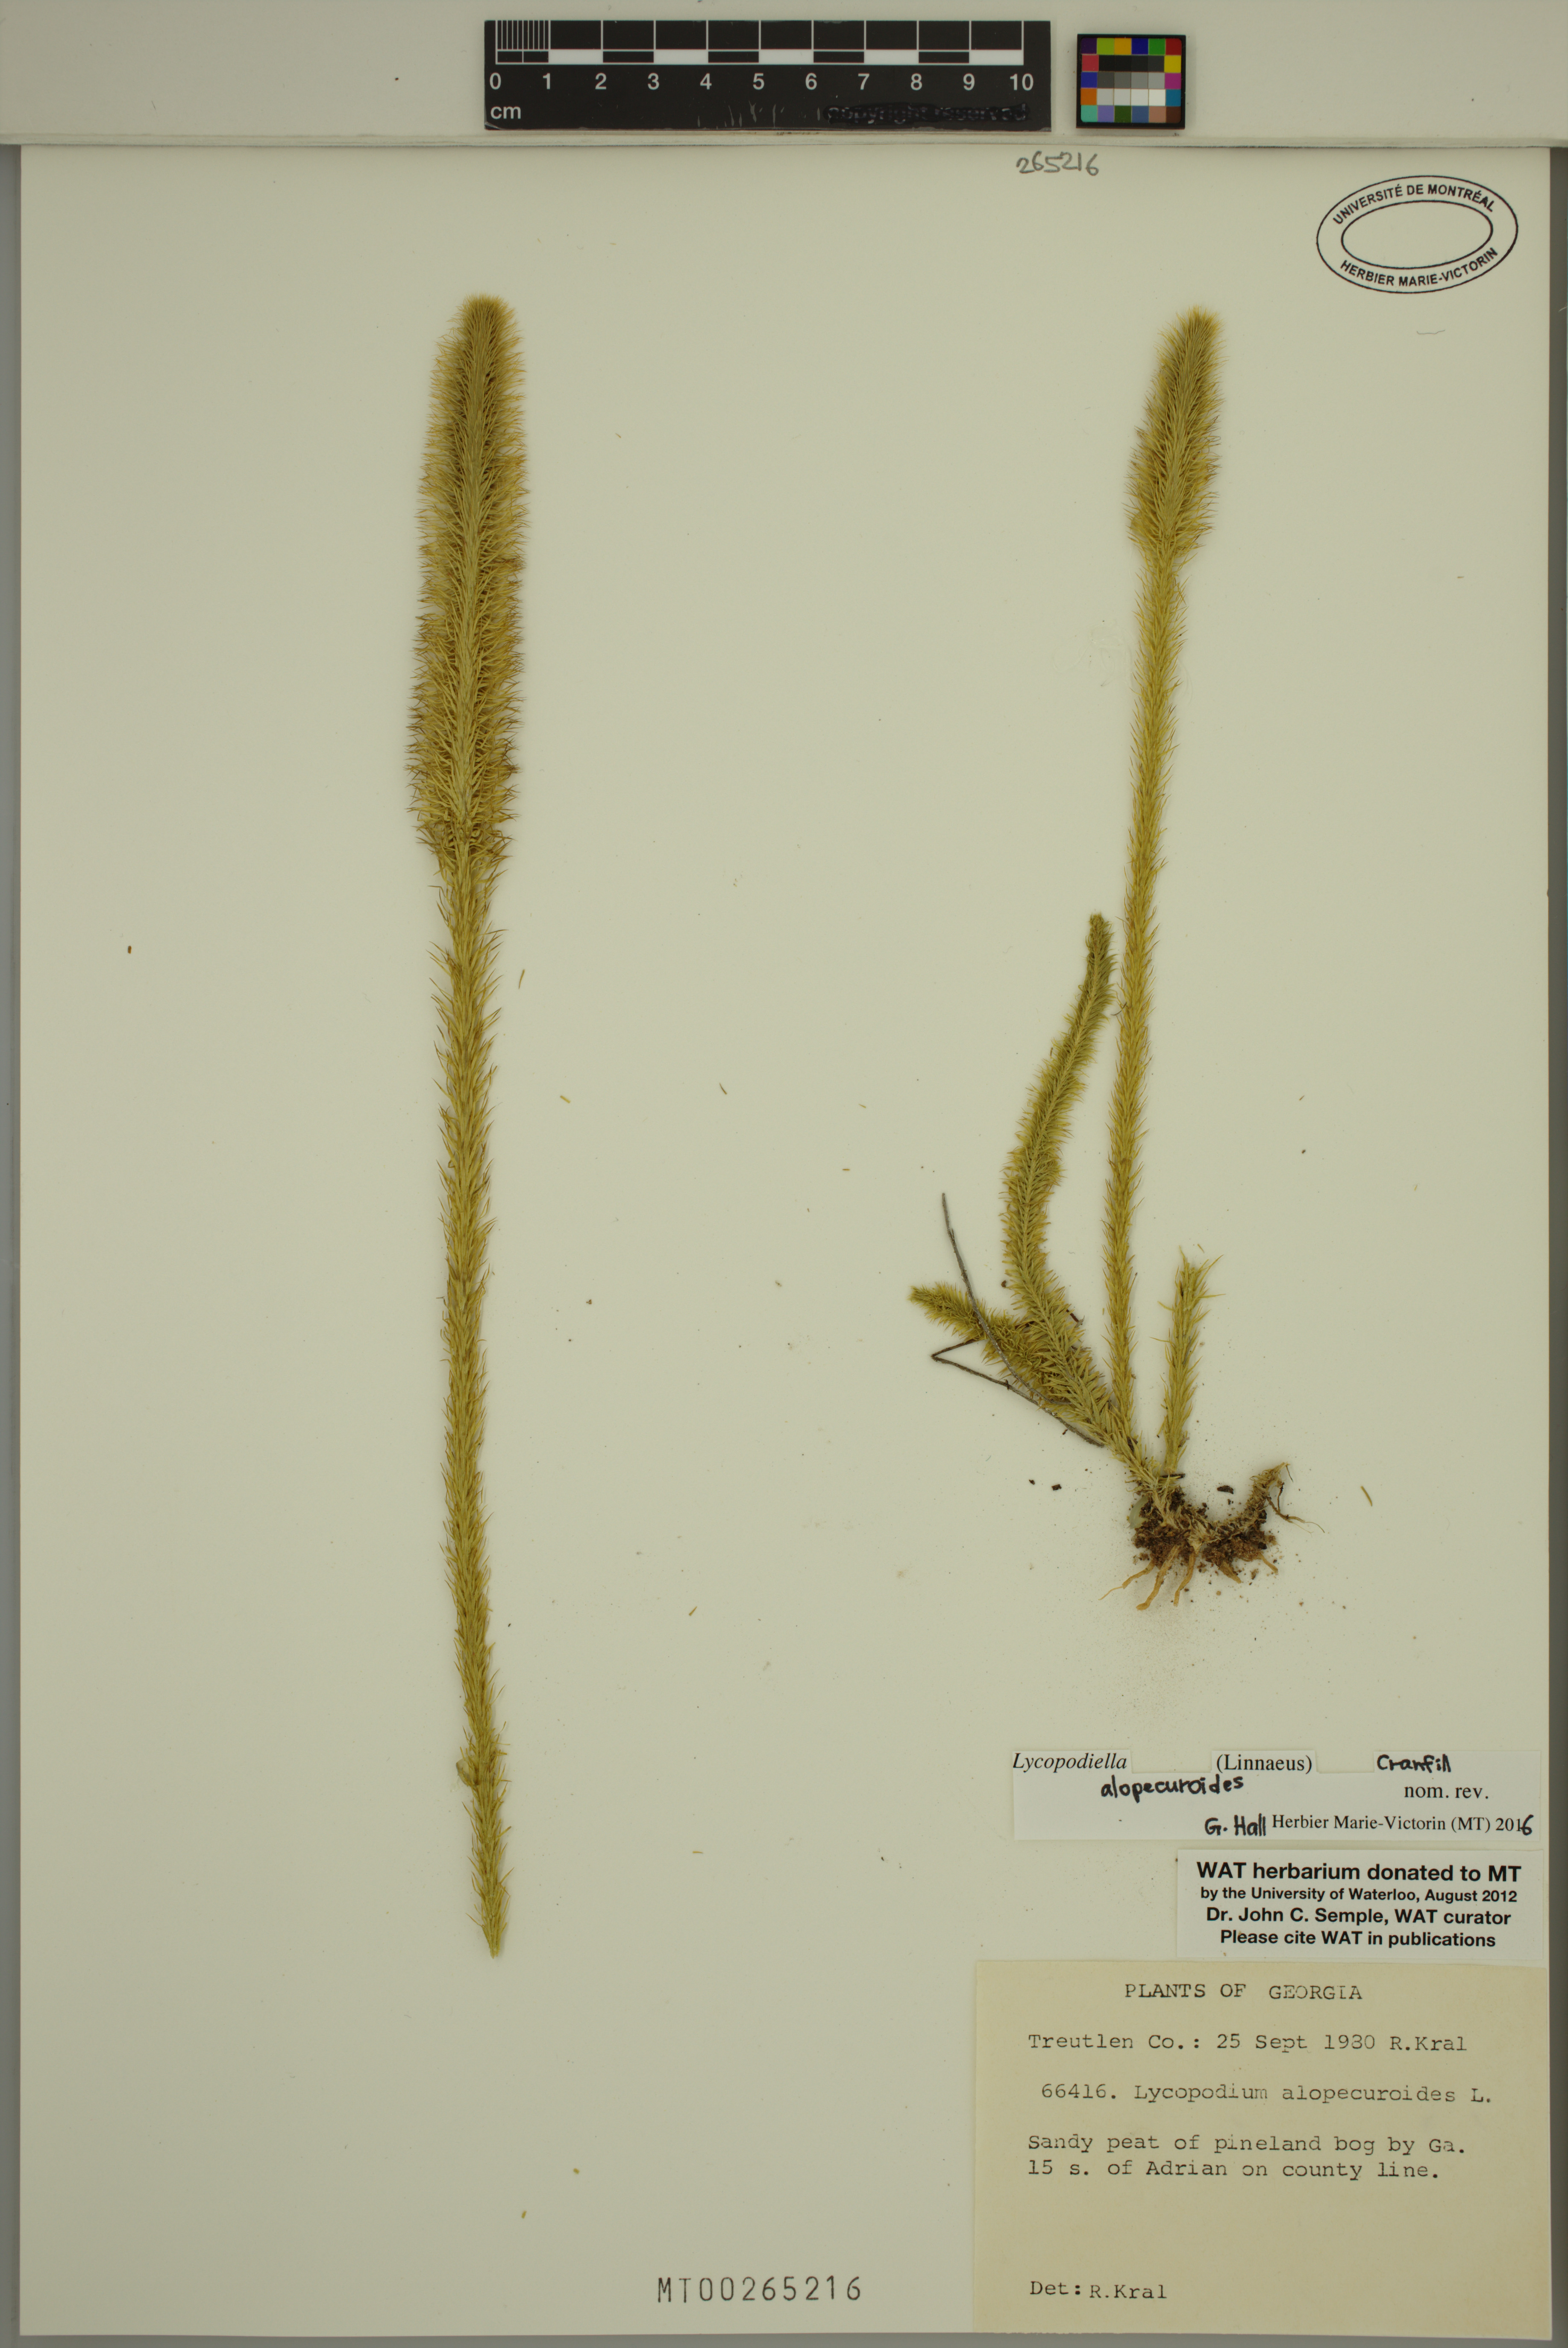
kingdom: Plantae
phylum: Tracheophyta
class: Lycopodiopsida
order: Lycopodiales
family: Lycopodiaceae
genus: Lycopodiella
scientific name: Lycopodiella alopecuroides
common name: Foxtail clubmoss
